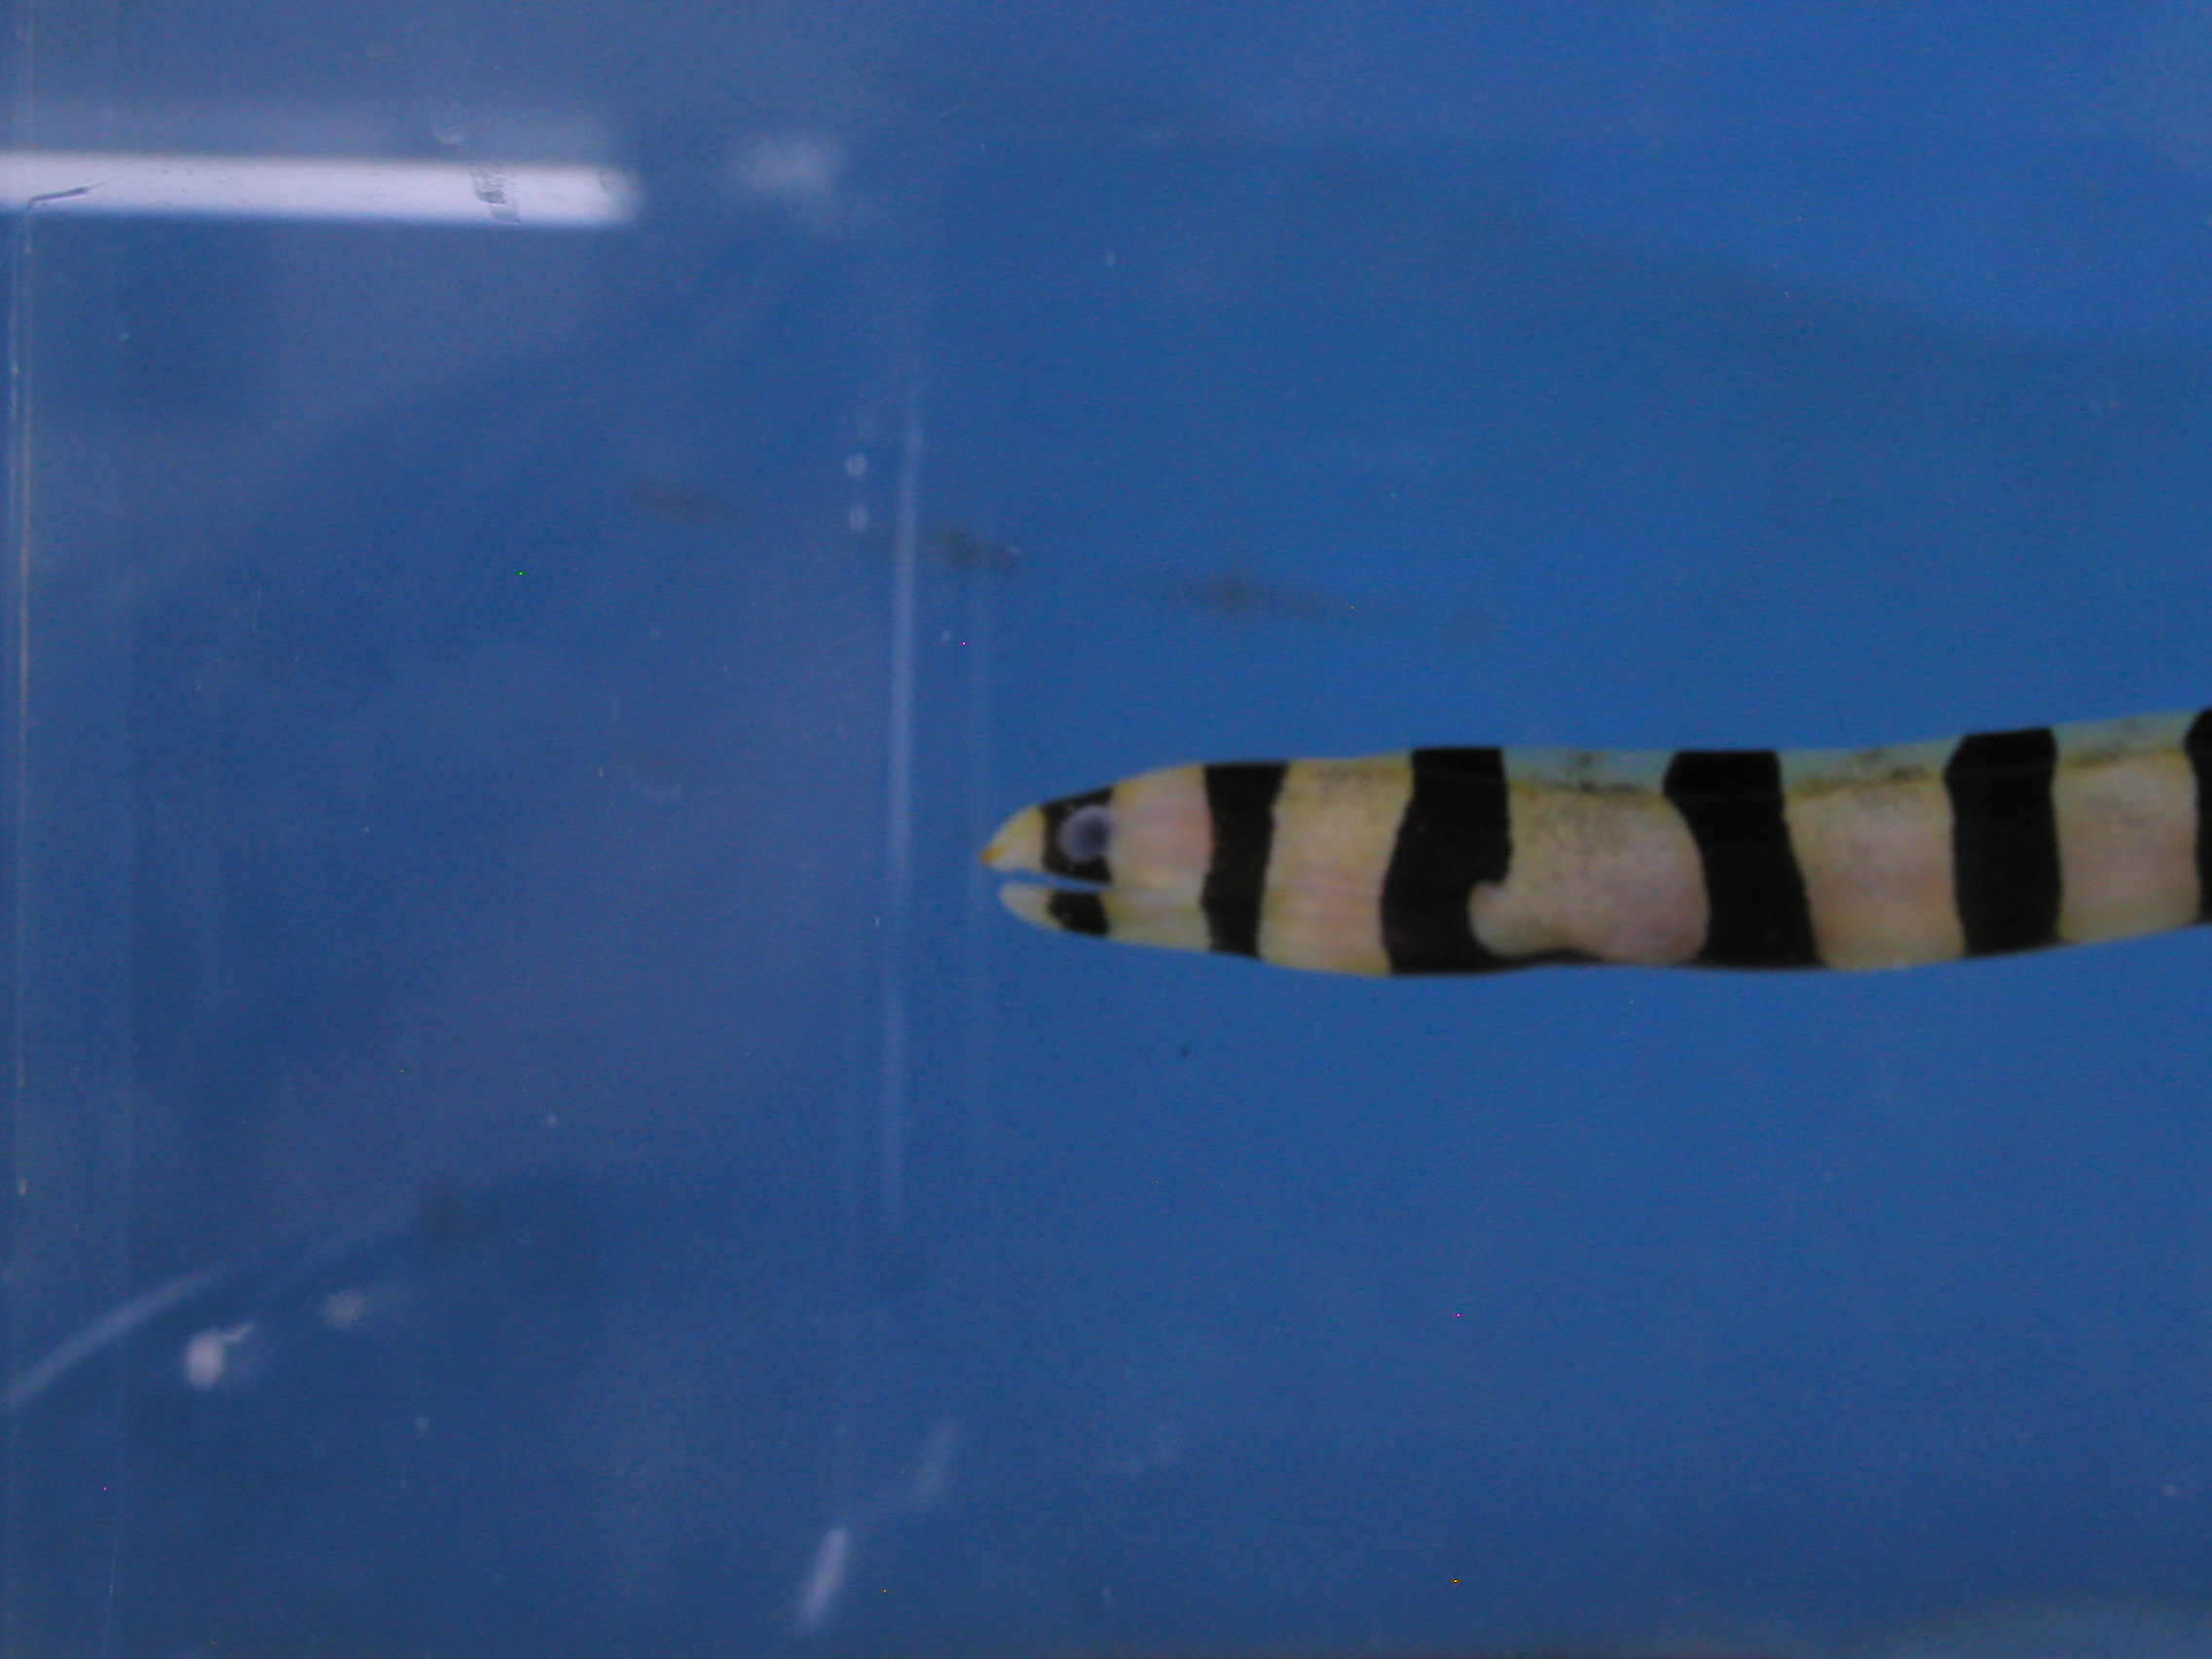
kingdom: Animalia
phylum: Chordata
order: Anguilliformes
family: Muraenidae
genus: Gymnothorax
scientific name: Gymnothorax enigmaticus
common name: Enigmatic moray
